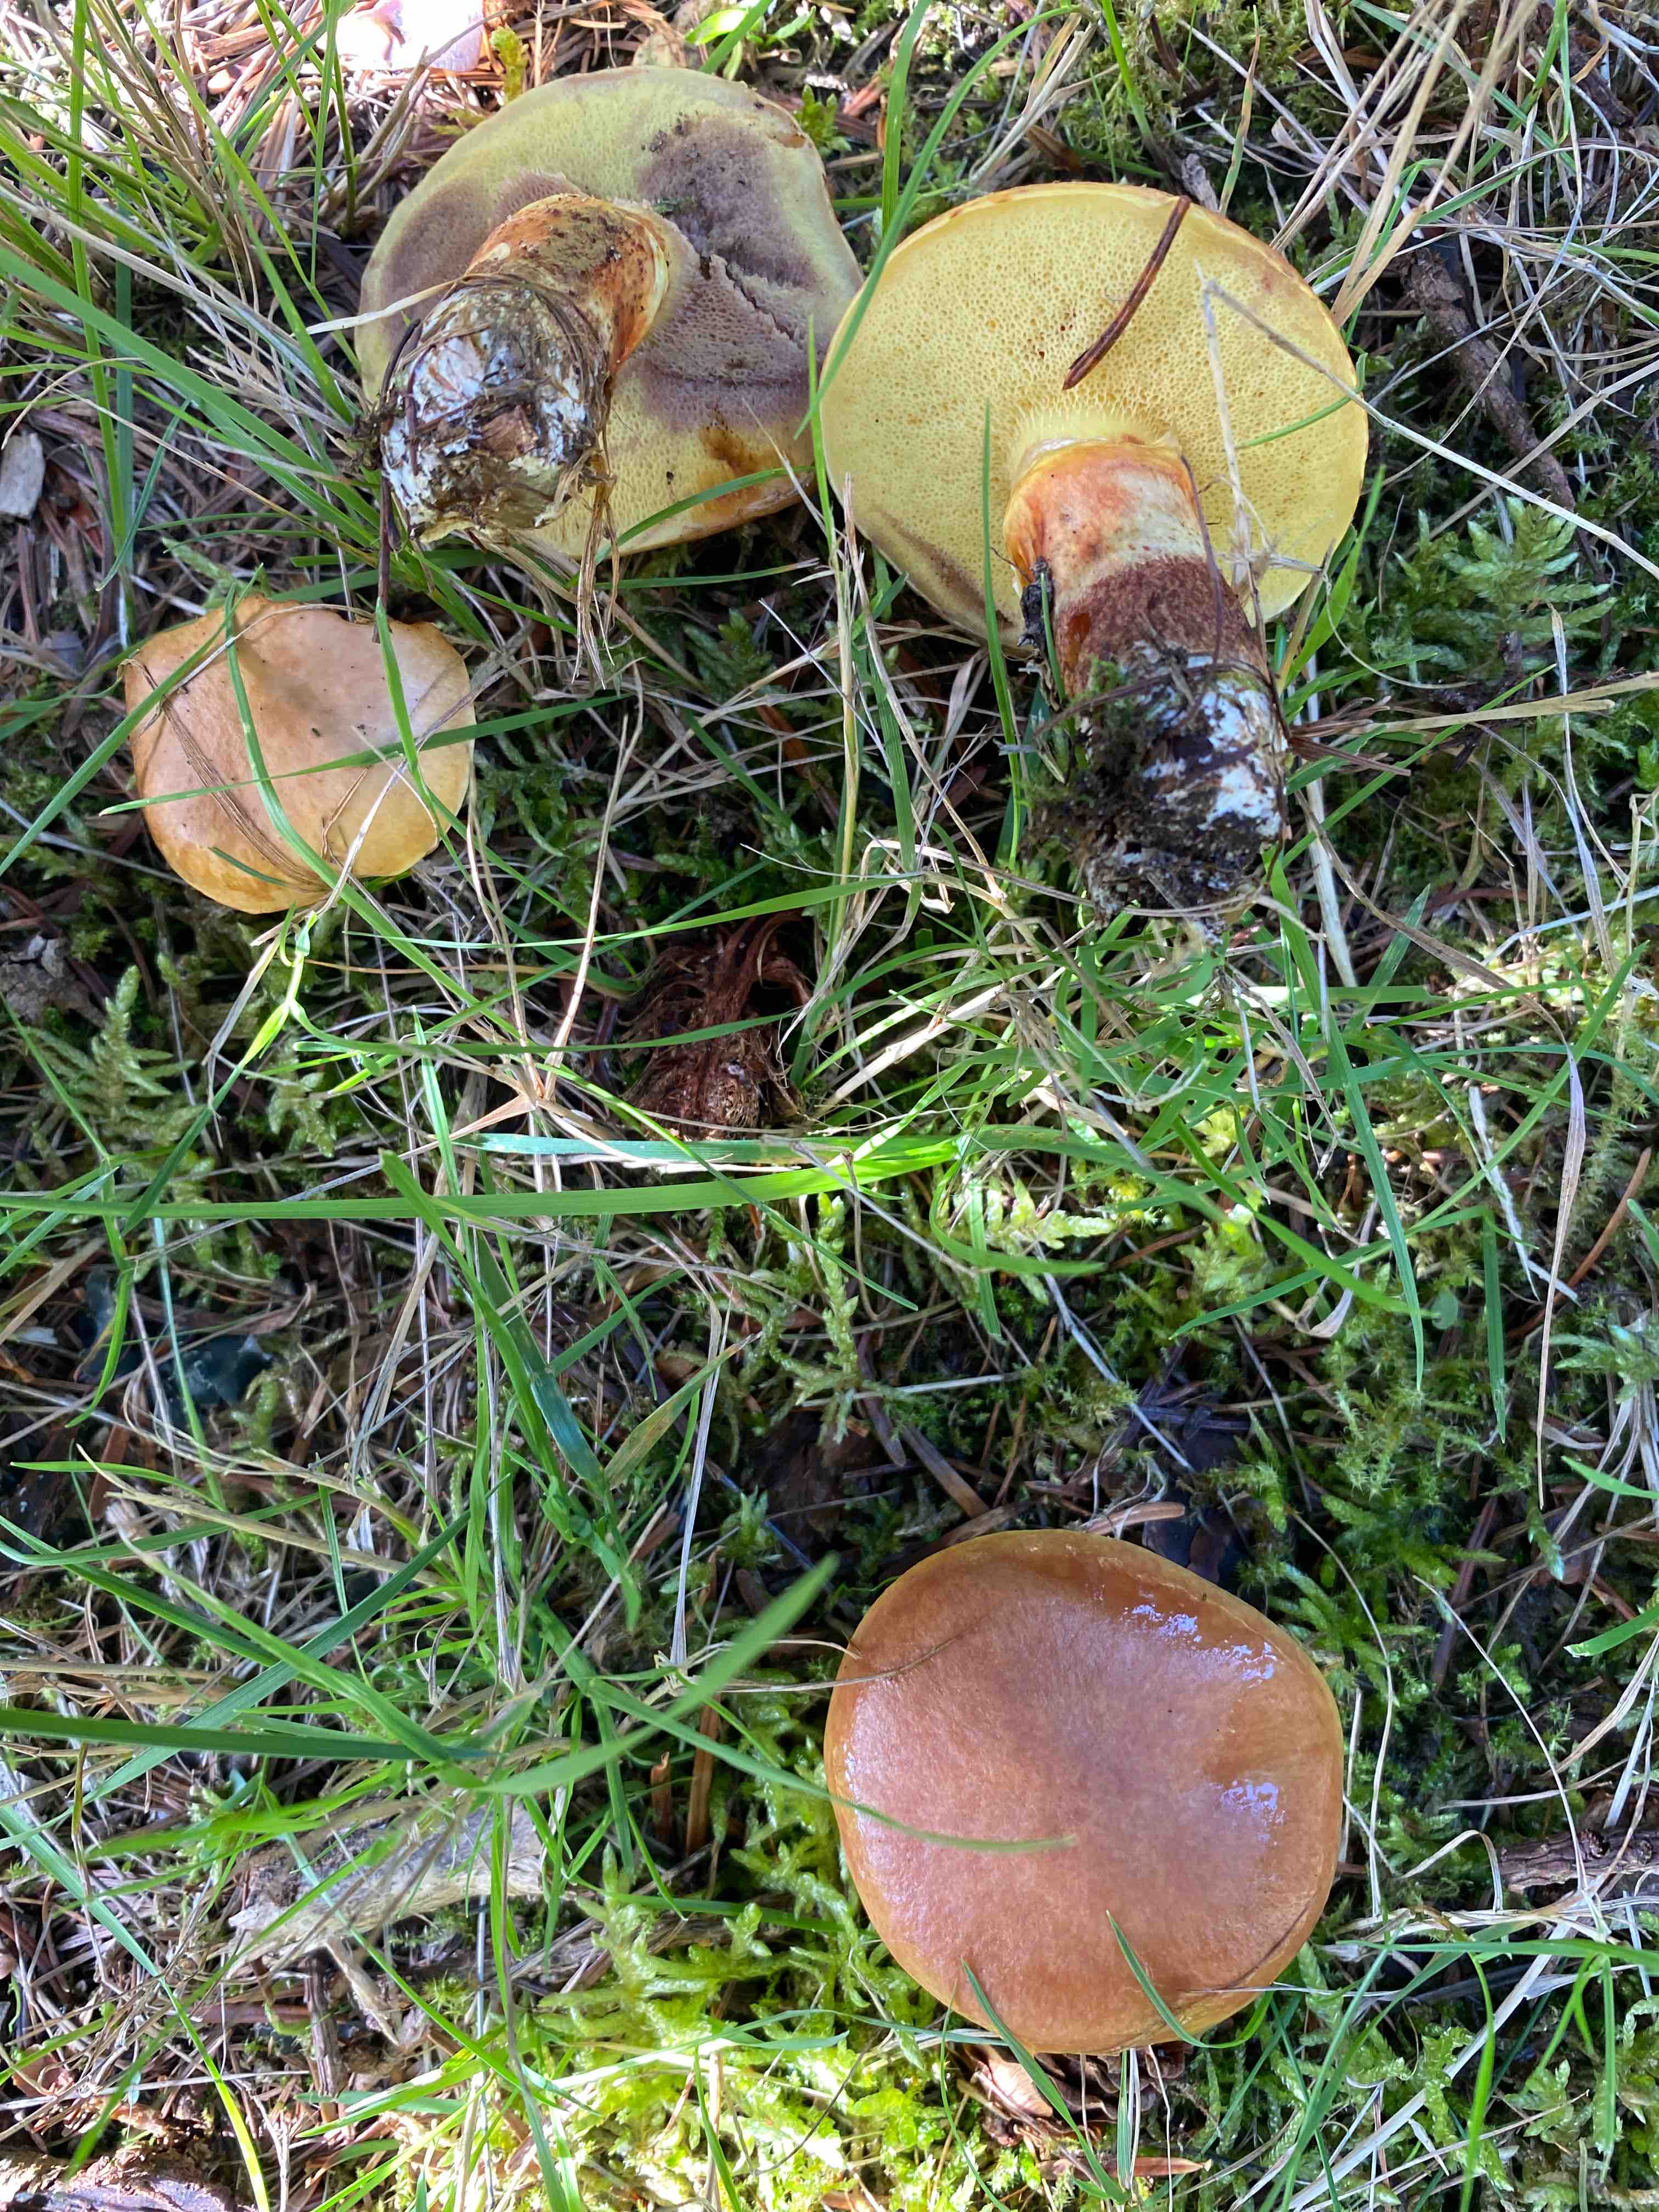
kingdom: Fungi
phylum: Basidiomycota
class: Agaricomycetes
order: Boletales
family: Suillaceae
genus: Suillus
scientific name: Suillus grevillei
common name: lærke-slimrørhat
